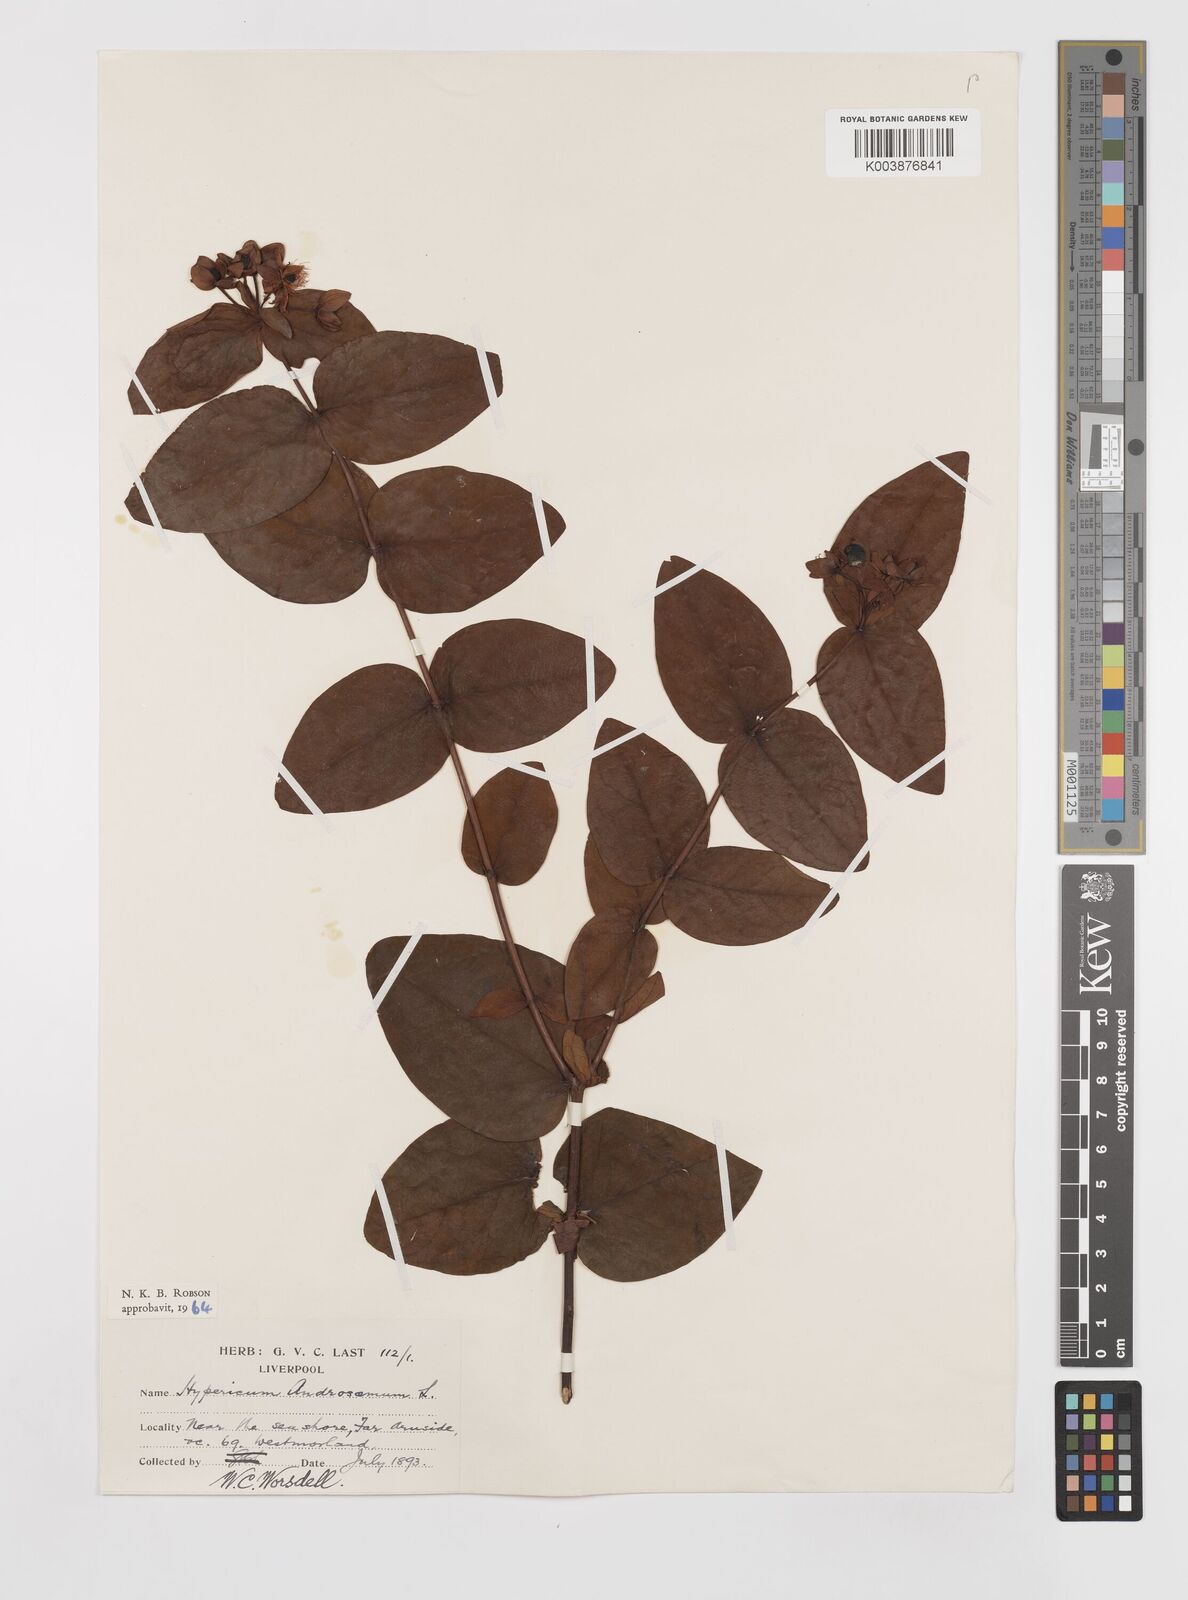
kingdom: Plantae
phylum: Tracheophyta
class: Magnoliopsida
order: Malpighiales
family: Hypericaceae
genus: Hypericum
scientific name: Hypericum androsaemum
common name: Sweet-amber
